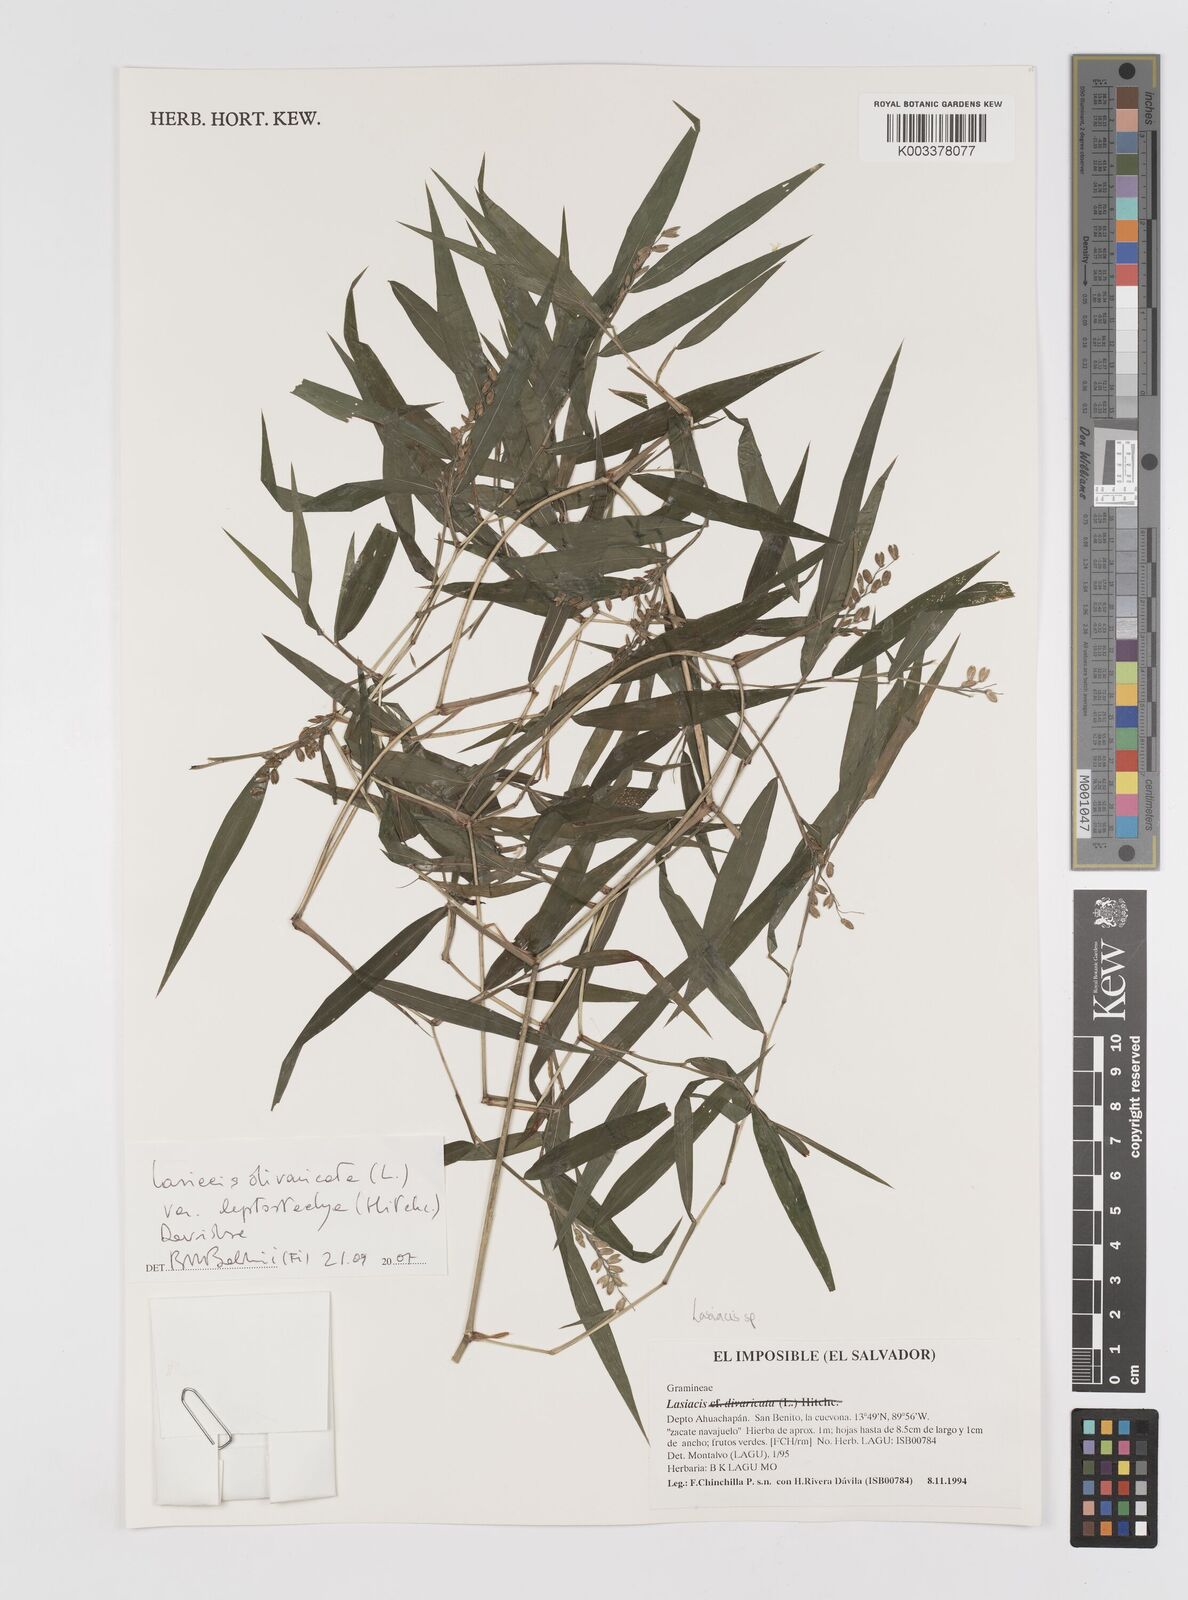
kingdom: Plantae
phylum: Tracheophyta
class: Liliopsida
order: Poales
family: Poaceae
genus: Lasiacis
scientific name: Lasiacis divaricata
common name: Smallcane
